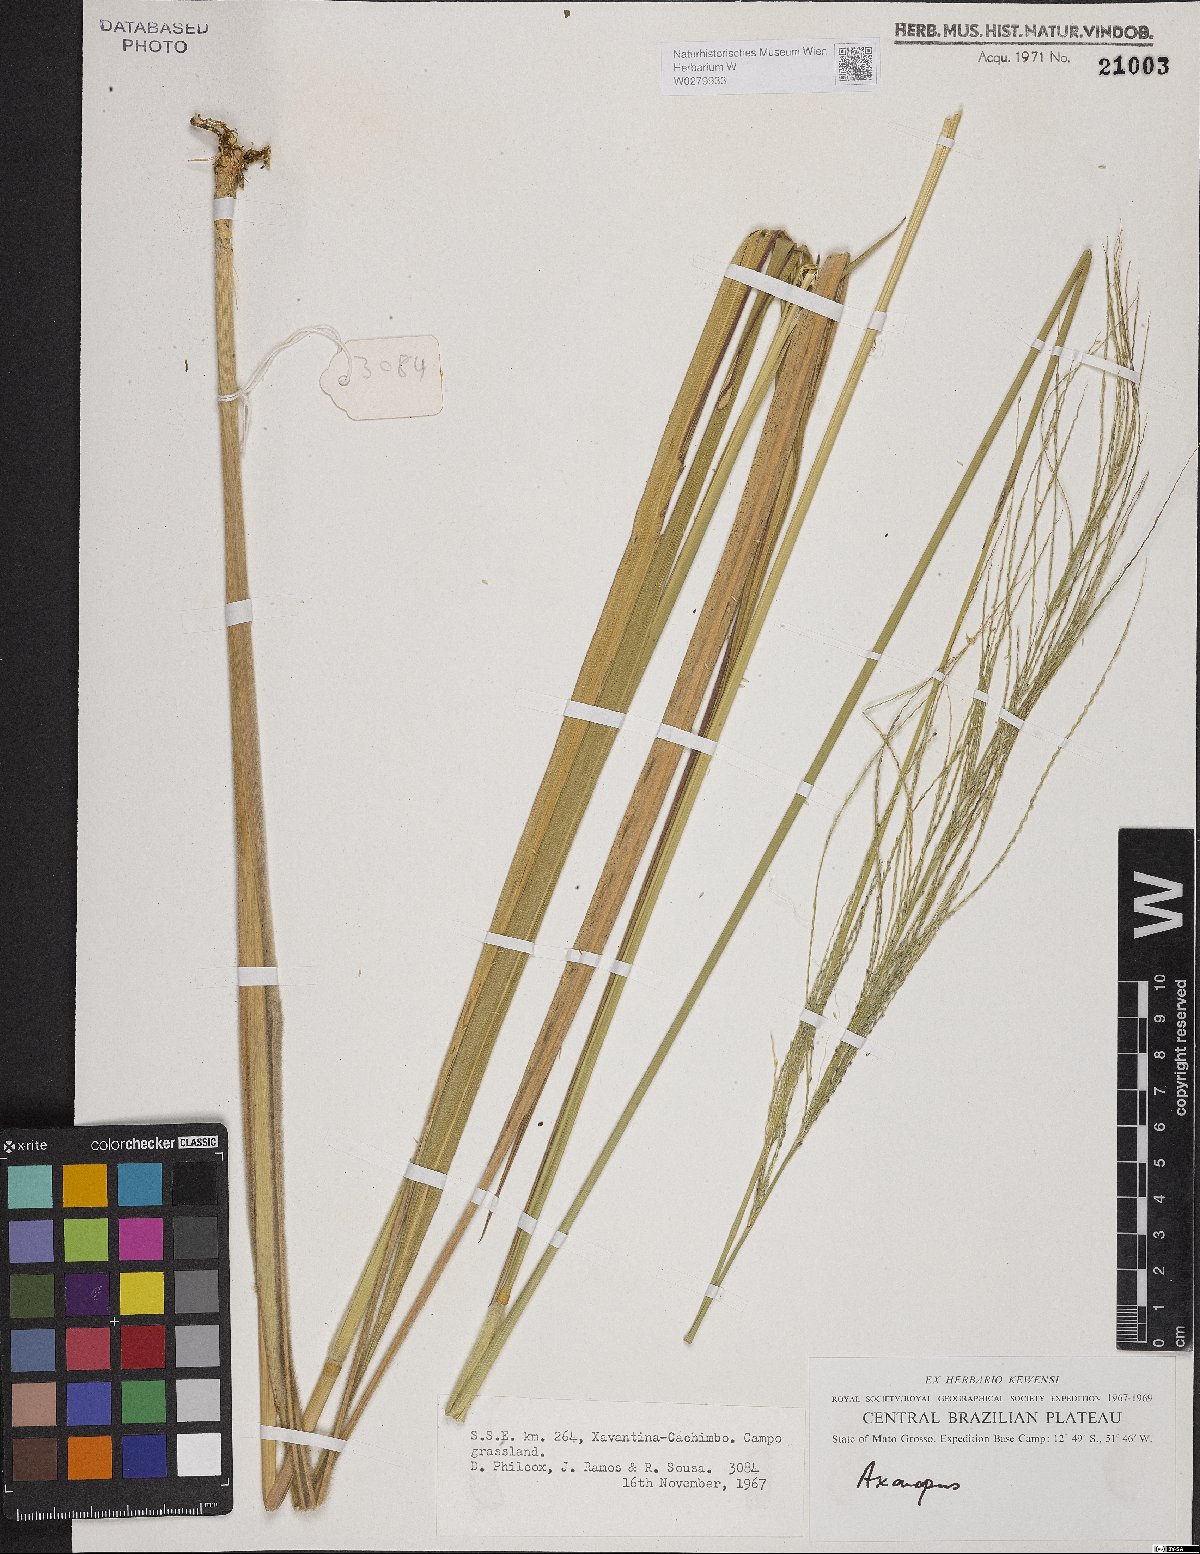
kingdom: Plantae
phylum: Tracheophyta
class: Liliopsida
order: Poales
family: Poaceae
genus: Axonopus
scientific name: Axonopus
